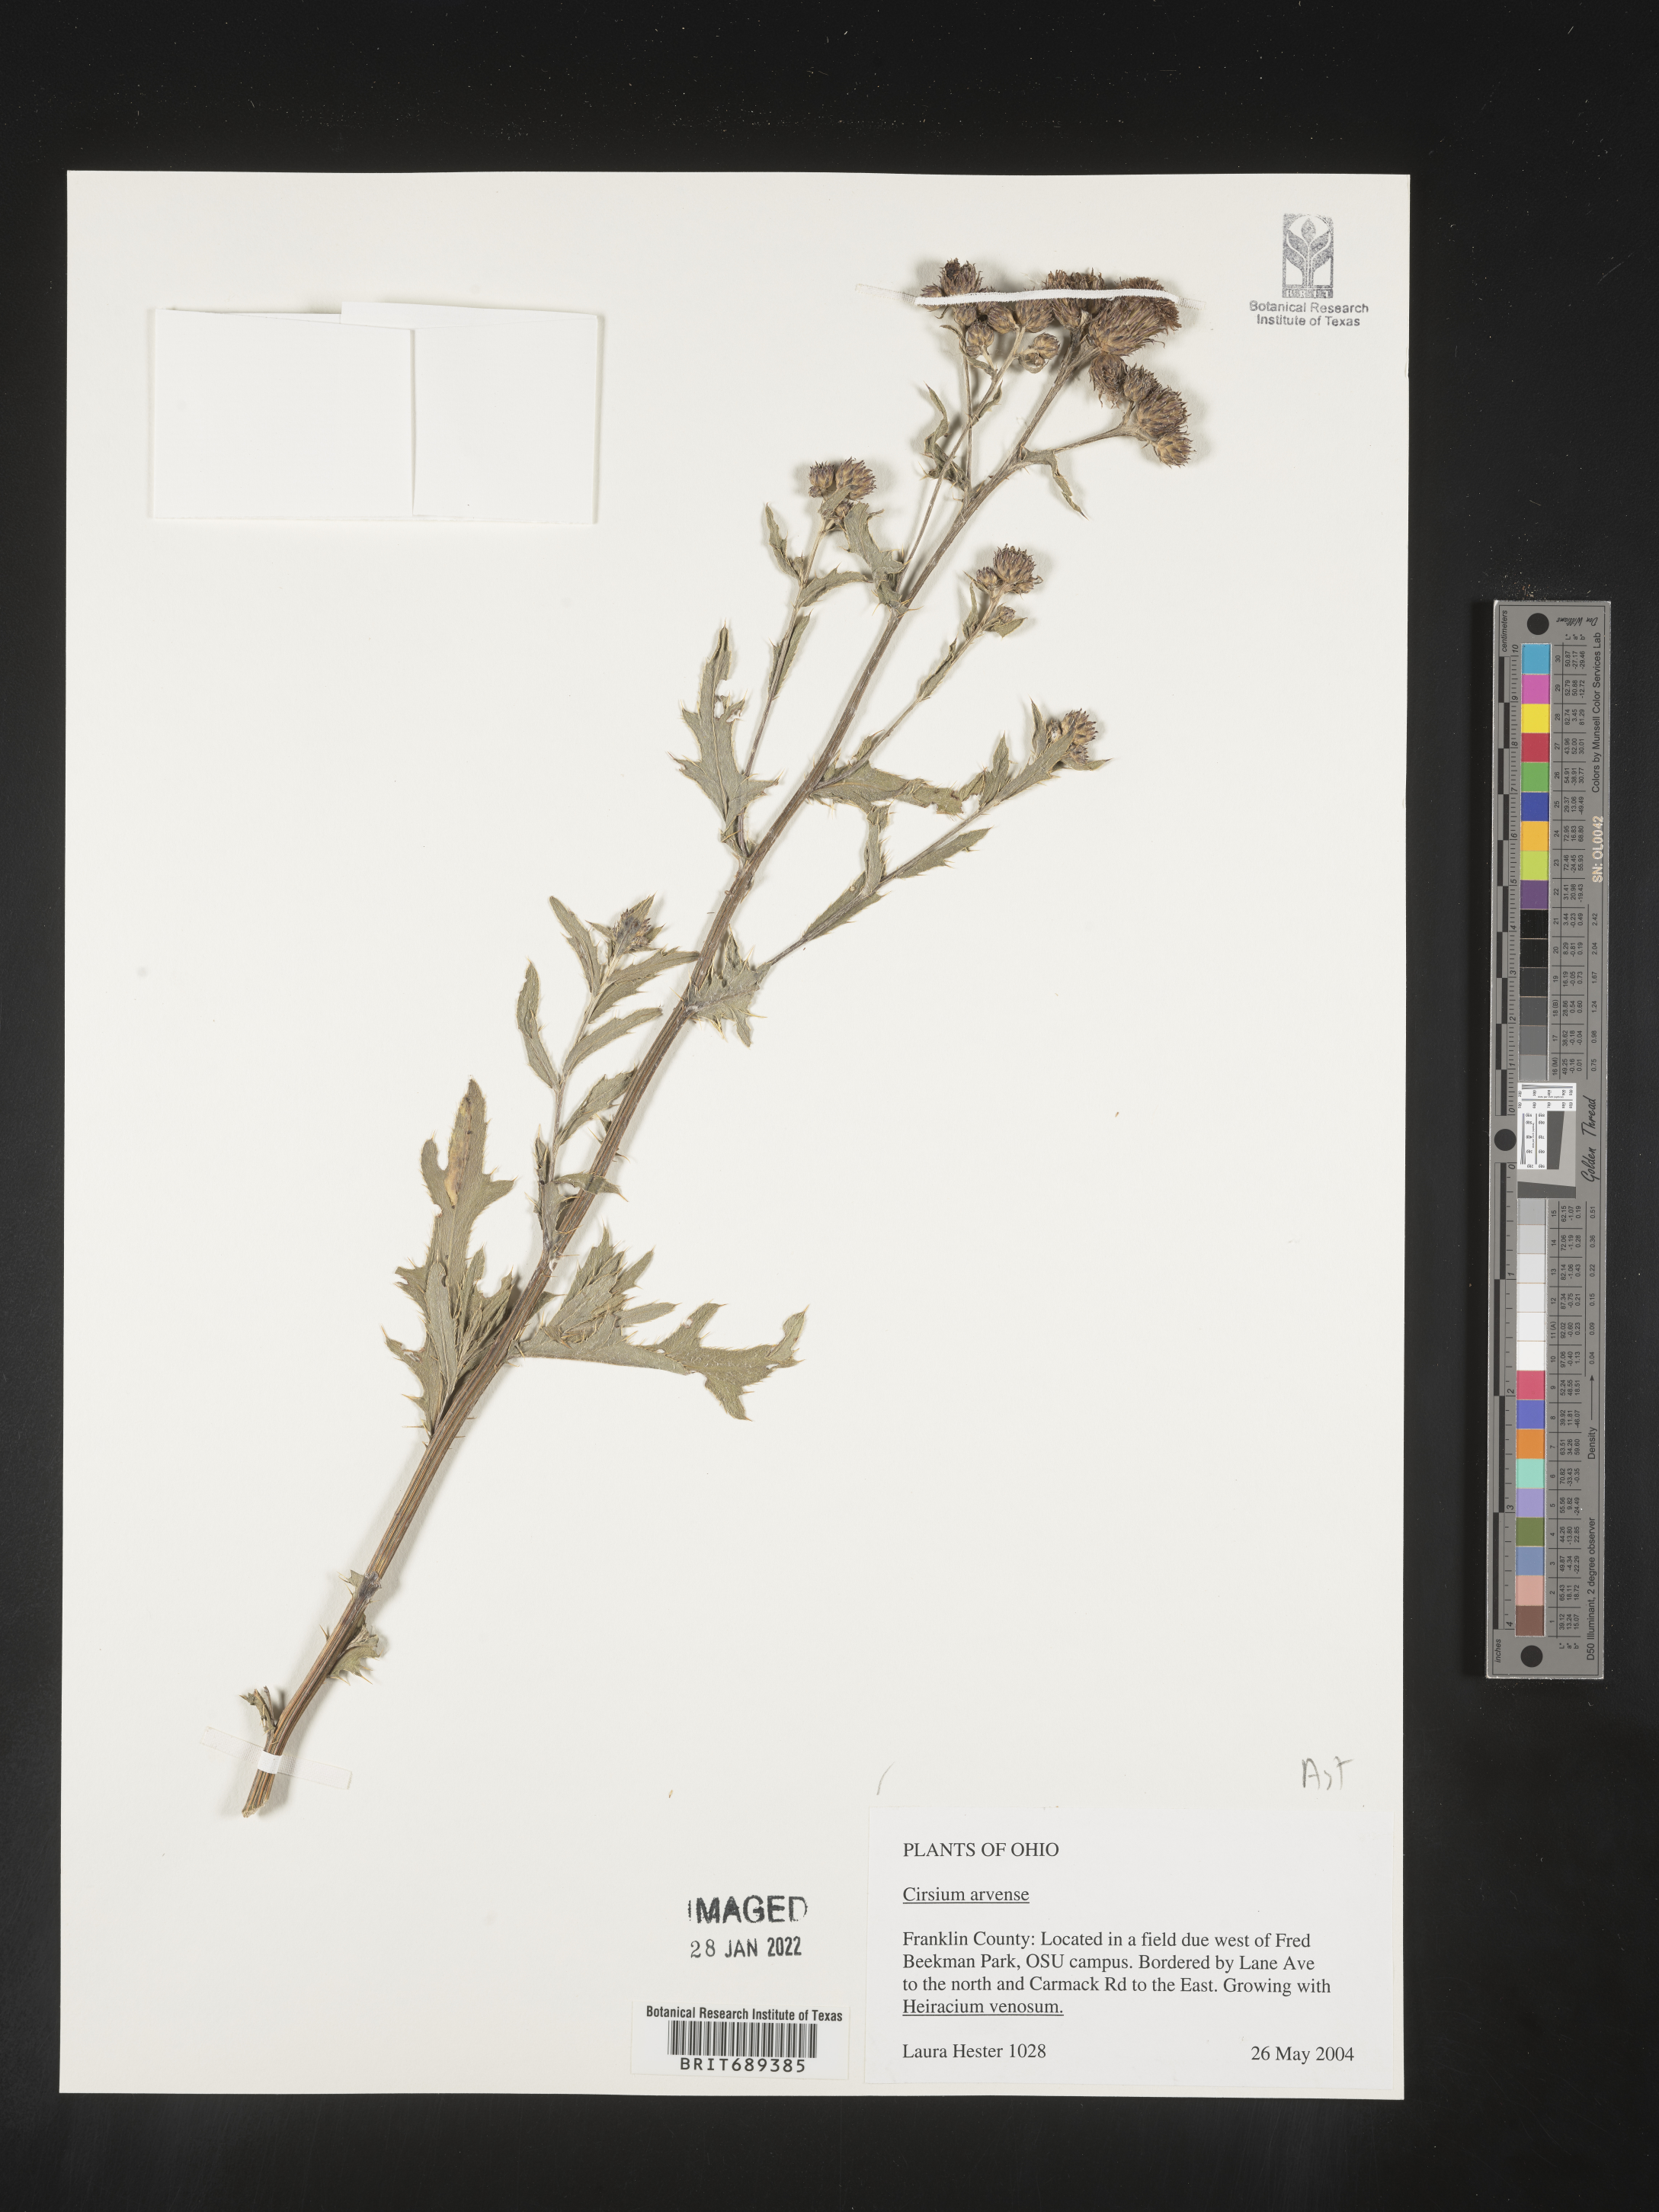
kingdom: Plantae
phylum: Tracheophyta
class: Magnoliopsida
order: Asterales
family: Asteraceae
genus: Cirsium
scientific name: Cirsium arvense
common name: Creeping thistle
